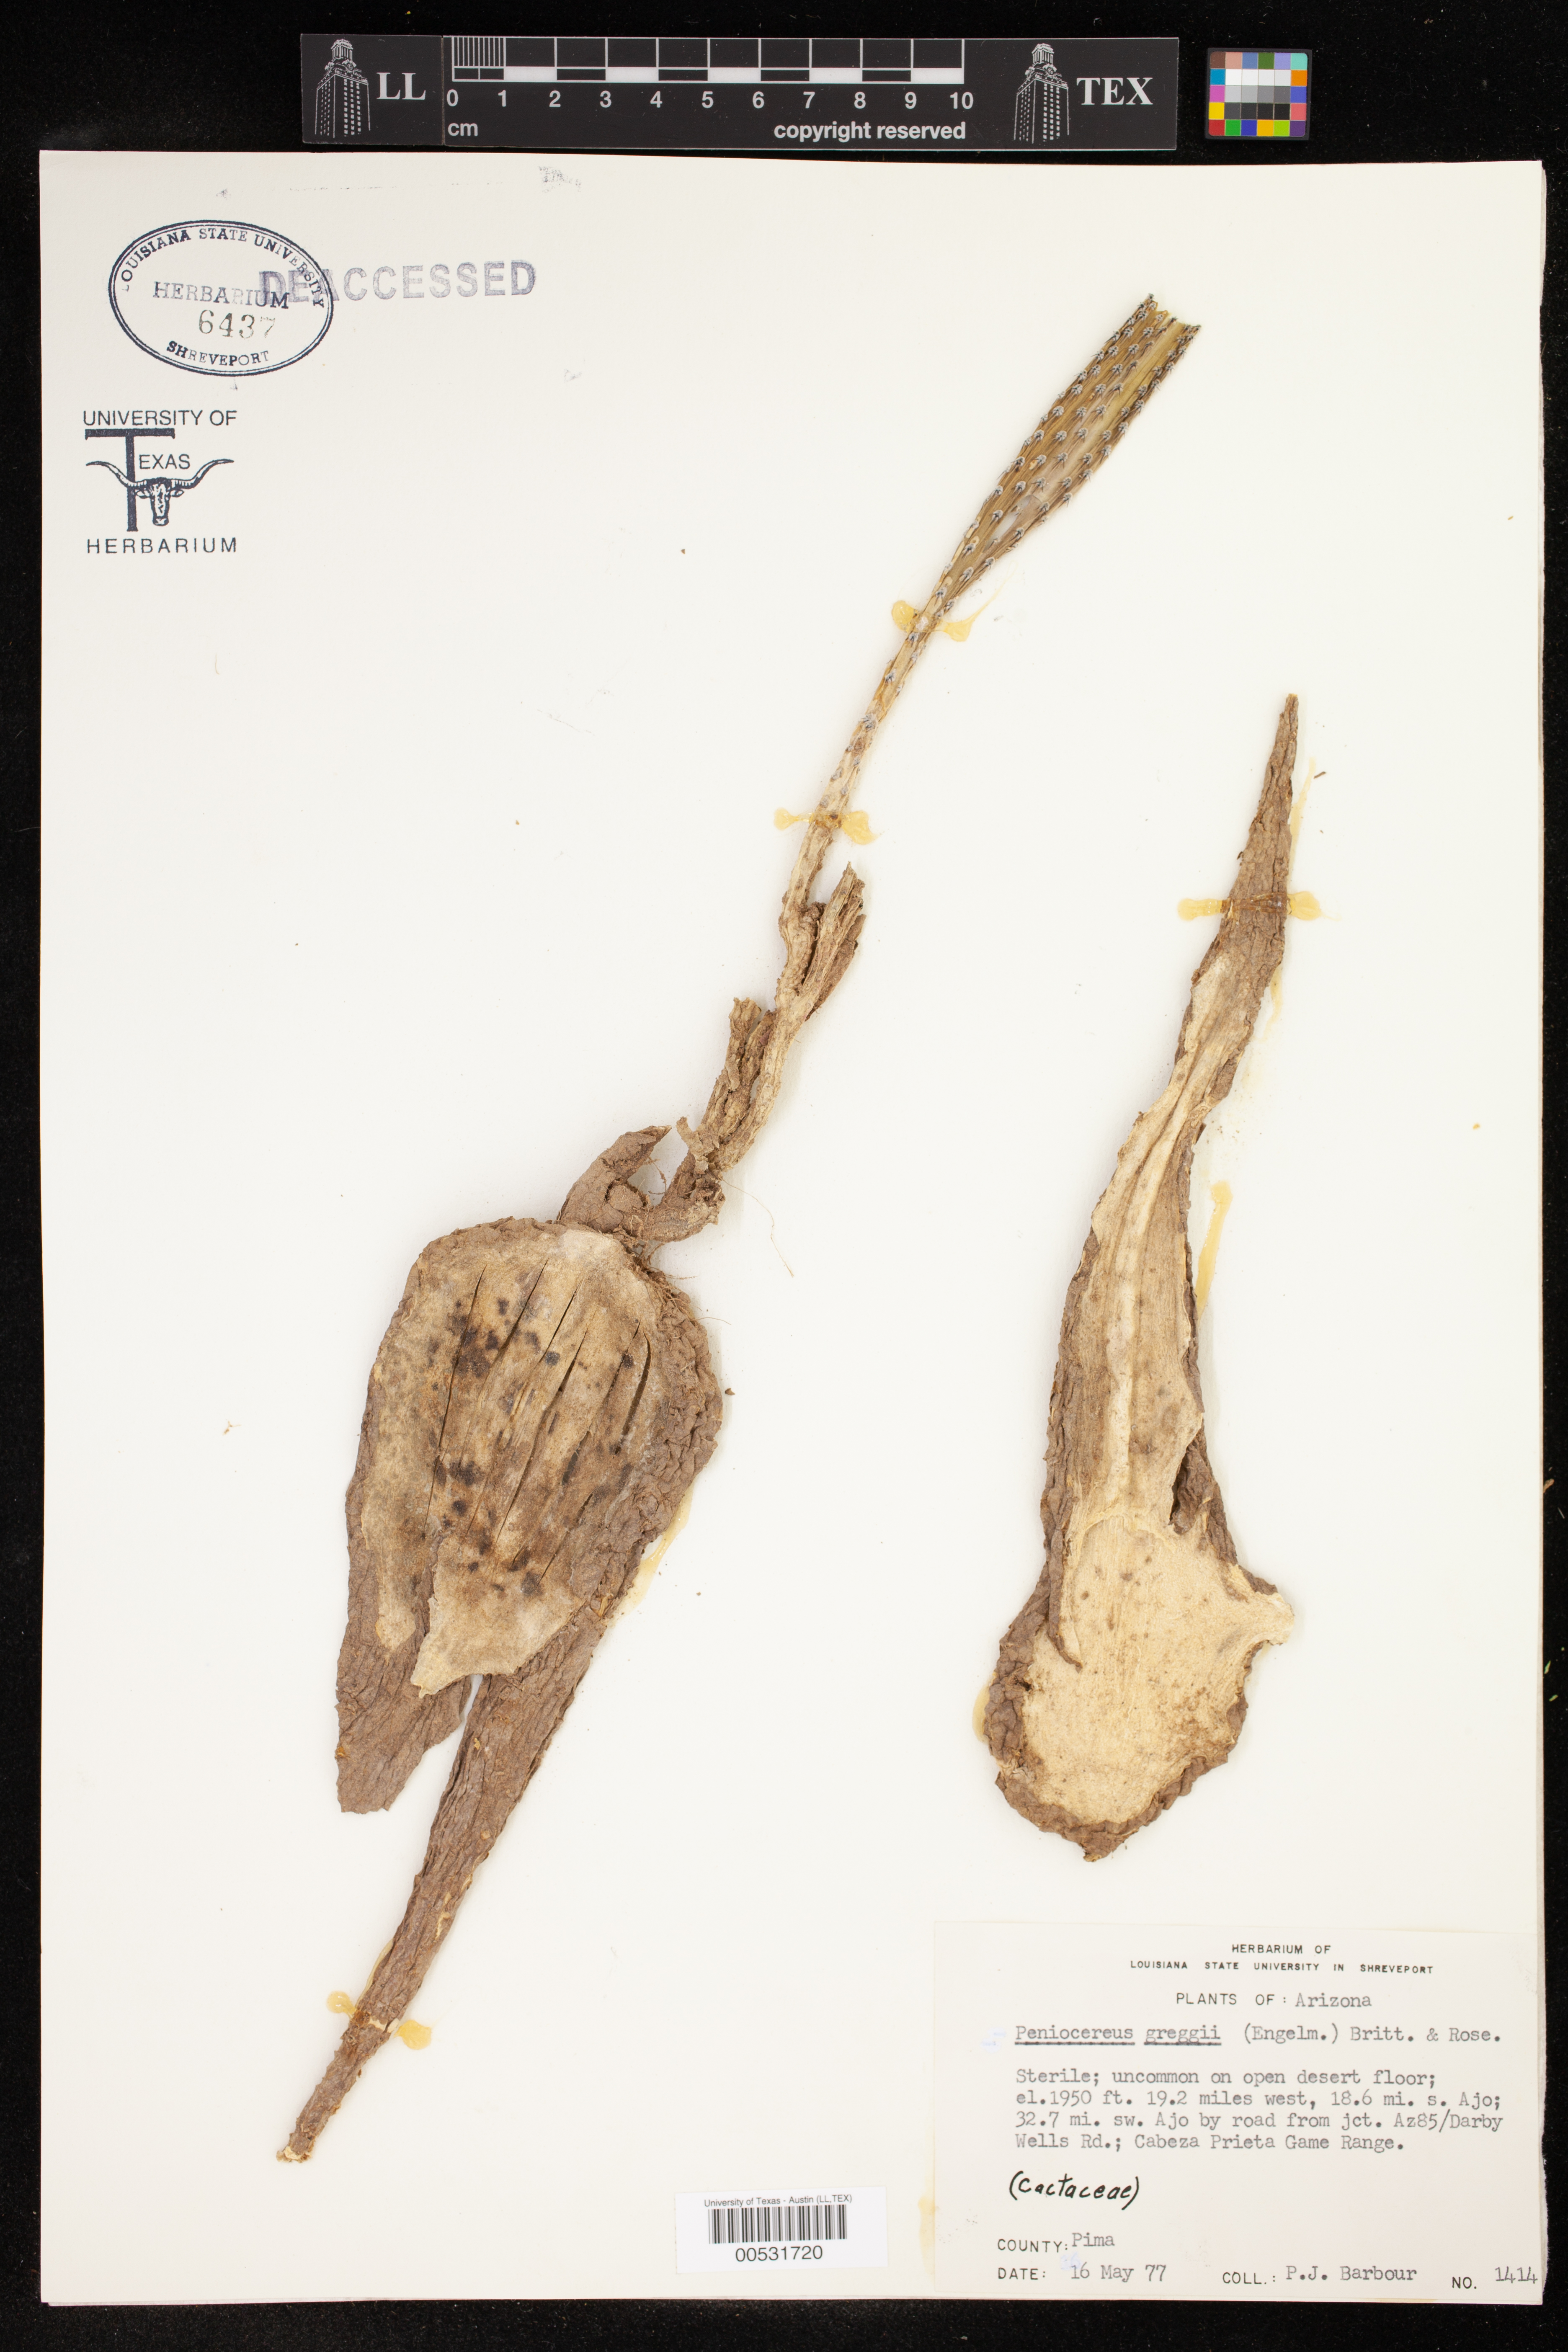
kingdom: Plantae
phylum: Tracheophyta
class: Magnoliopsida
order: Caryophyllales
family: Cactaceae
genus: Peniocereus
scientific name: Peniocereus greggii
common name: Desert night-blooming cereus
